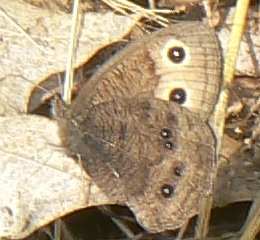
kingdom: Animalia
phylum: Arthropoda
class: Insecta
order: Lepidoptera
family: Nymphalidae
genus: Cercyonis
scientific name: Cercyonis pegala
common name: Common Wood-Nymph
